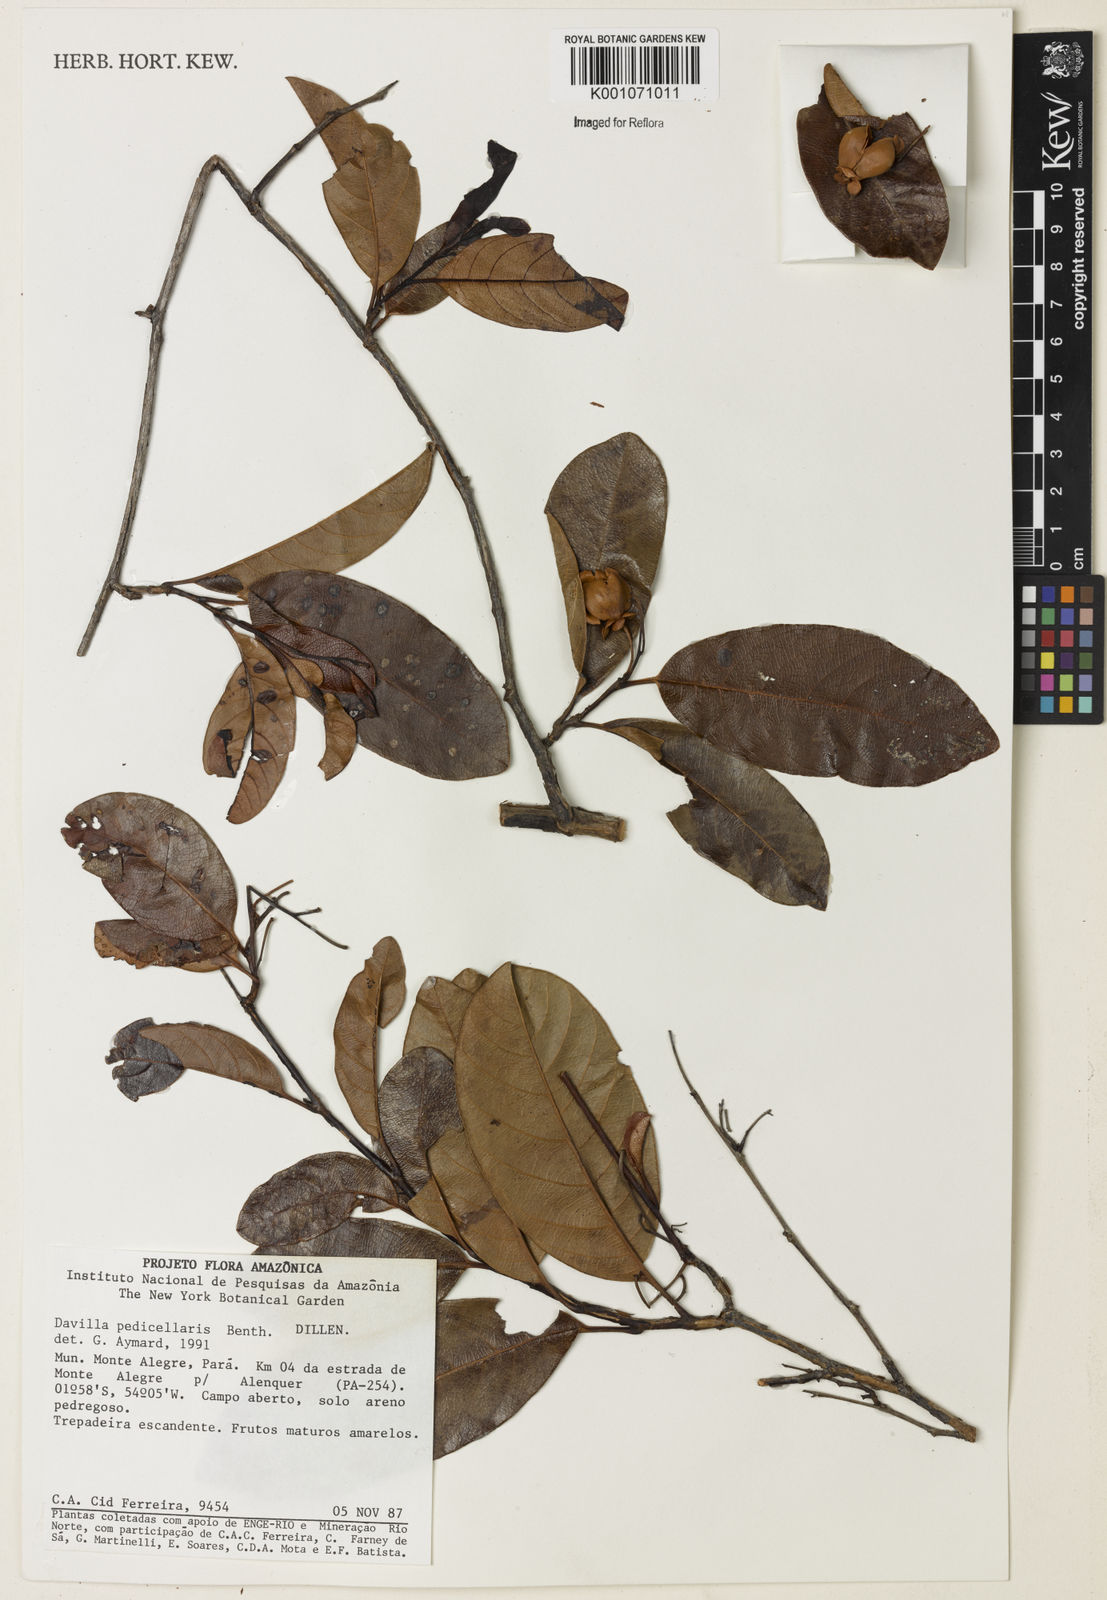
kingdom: Plantae
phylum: Tracheophyta
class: Magnoliopsida
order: Dilleniales
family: Dilleniaceae
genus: Davilla
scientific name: Davilla pedicellaris
